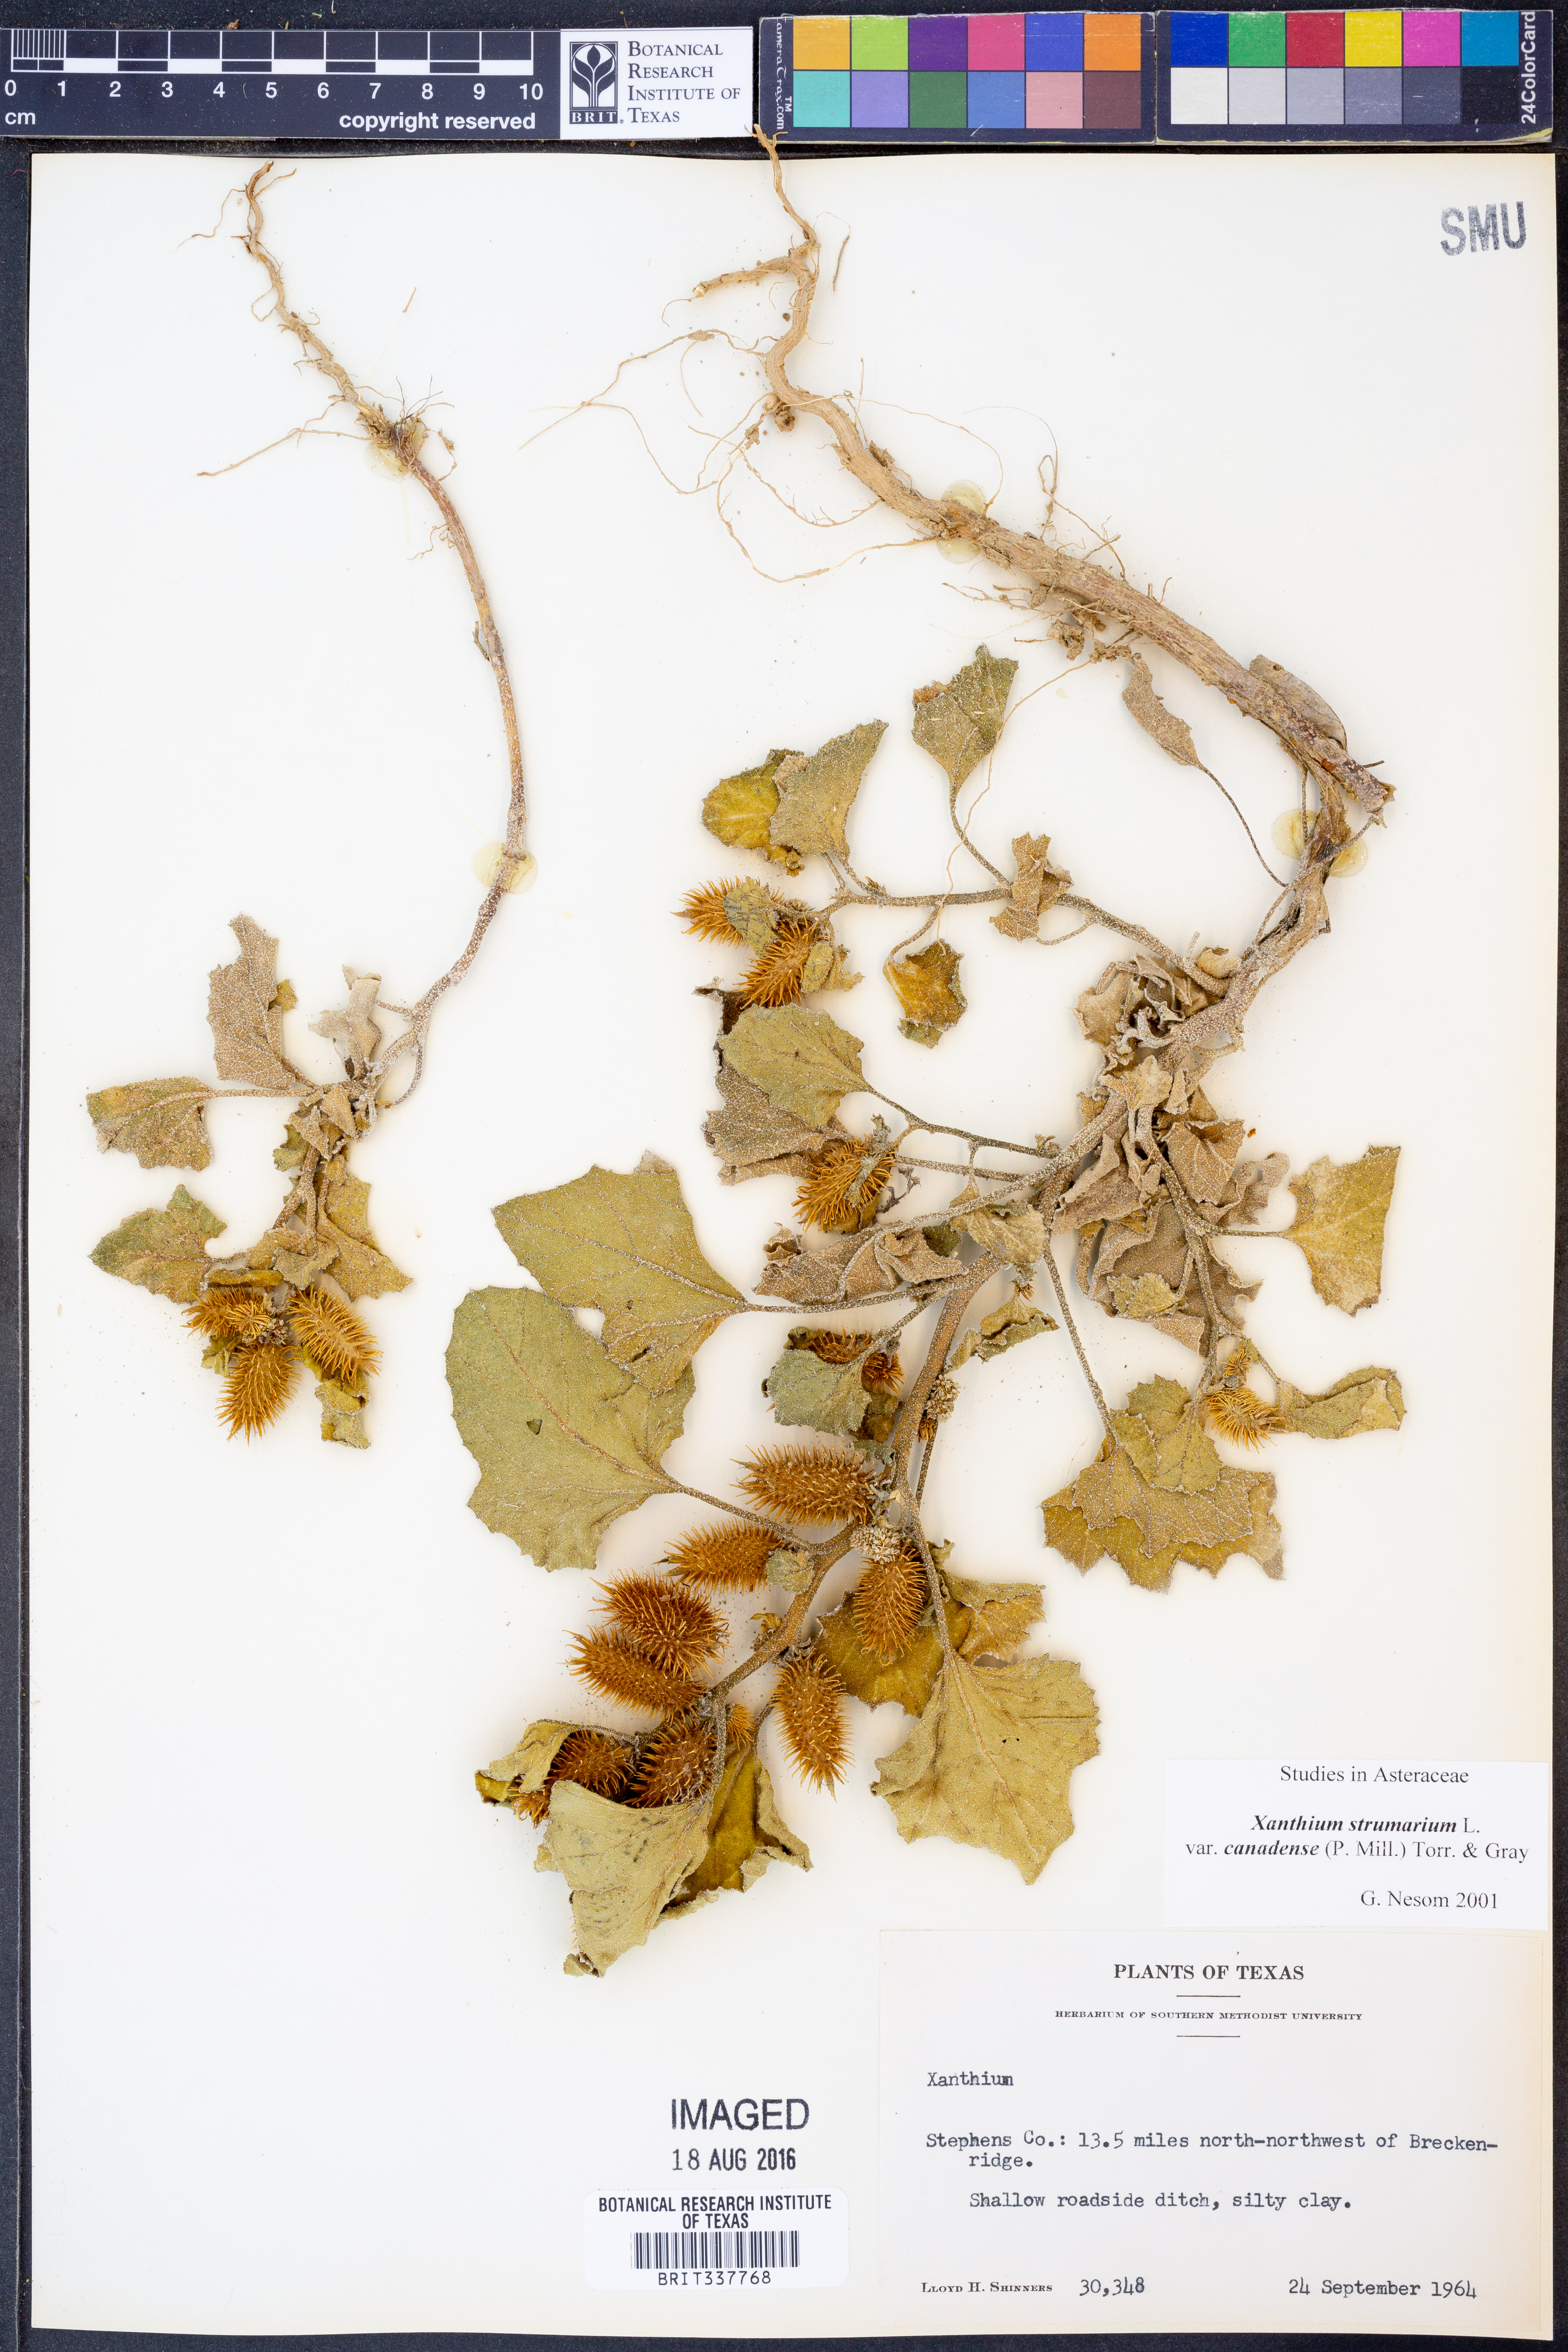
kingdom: Plantae
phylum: Tracheophyta
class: Magnoliopsida
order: Asterales
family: Asteraceae
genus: Xanthium
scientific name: Xanthium orientale
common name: Californian burr
